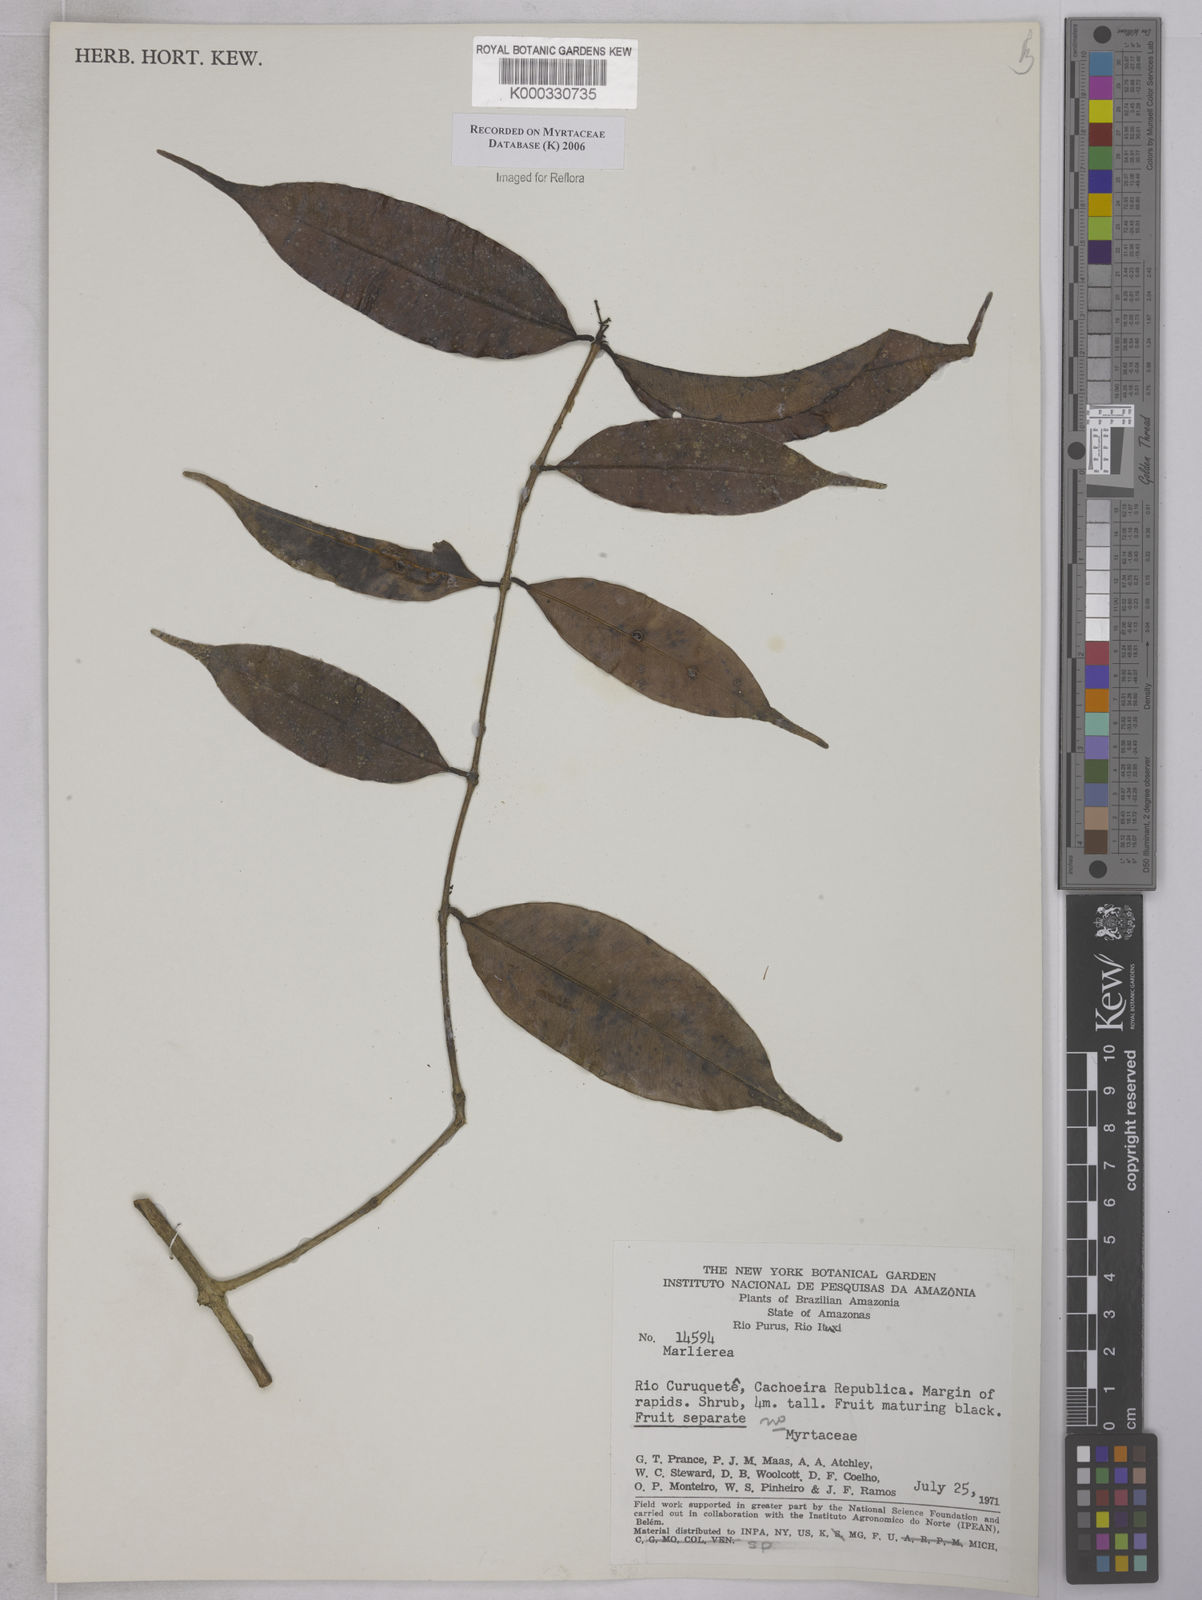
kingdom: Plantae
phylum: Tracheophyta
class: Magnoliopsida
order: Myrtales
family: Myrtaceae
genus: Marlierea
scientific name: Marlierea
